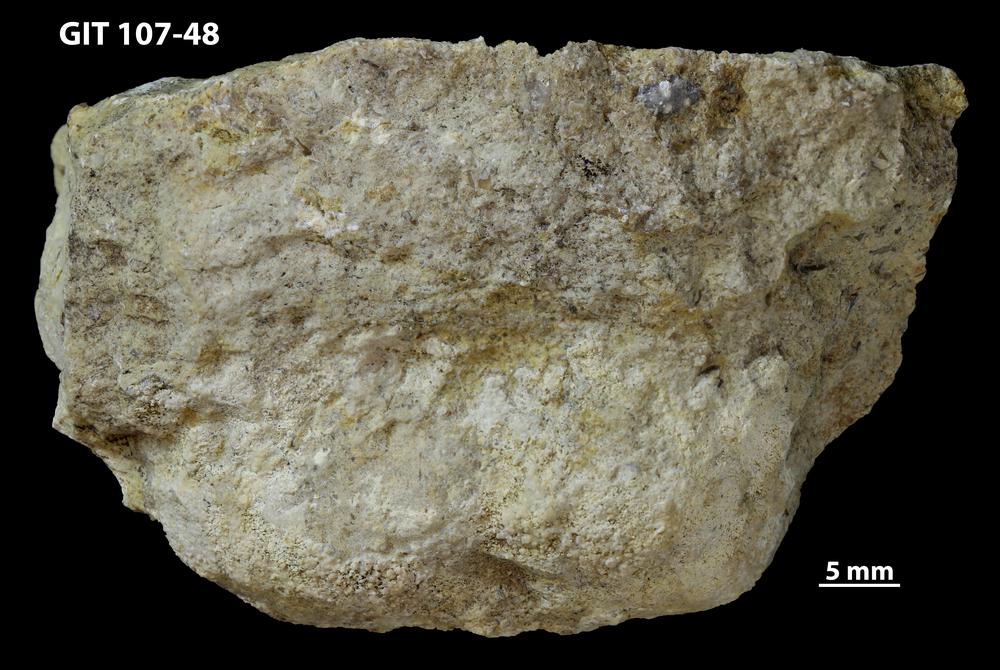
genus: Conichnus
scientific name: Conichnus
